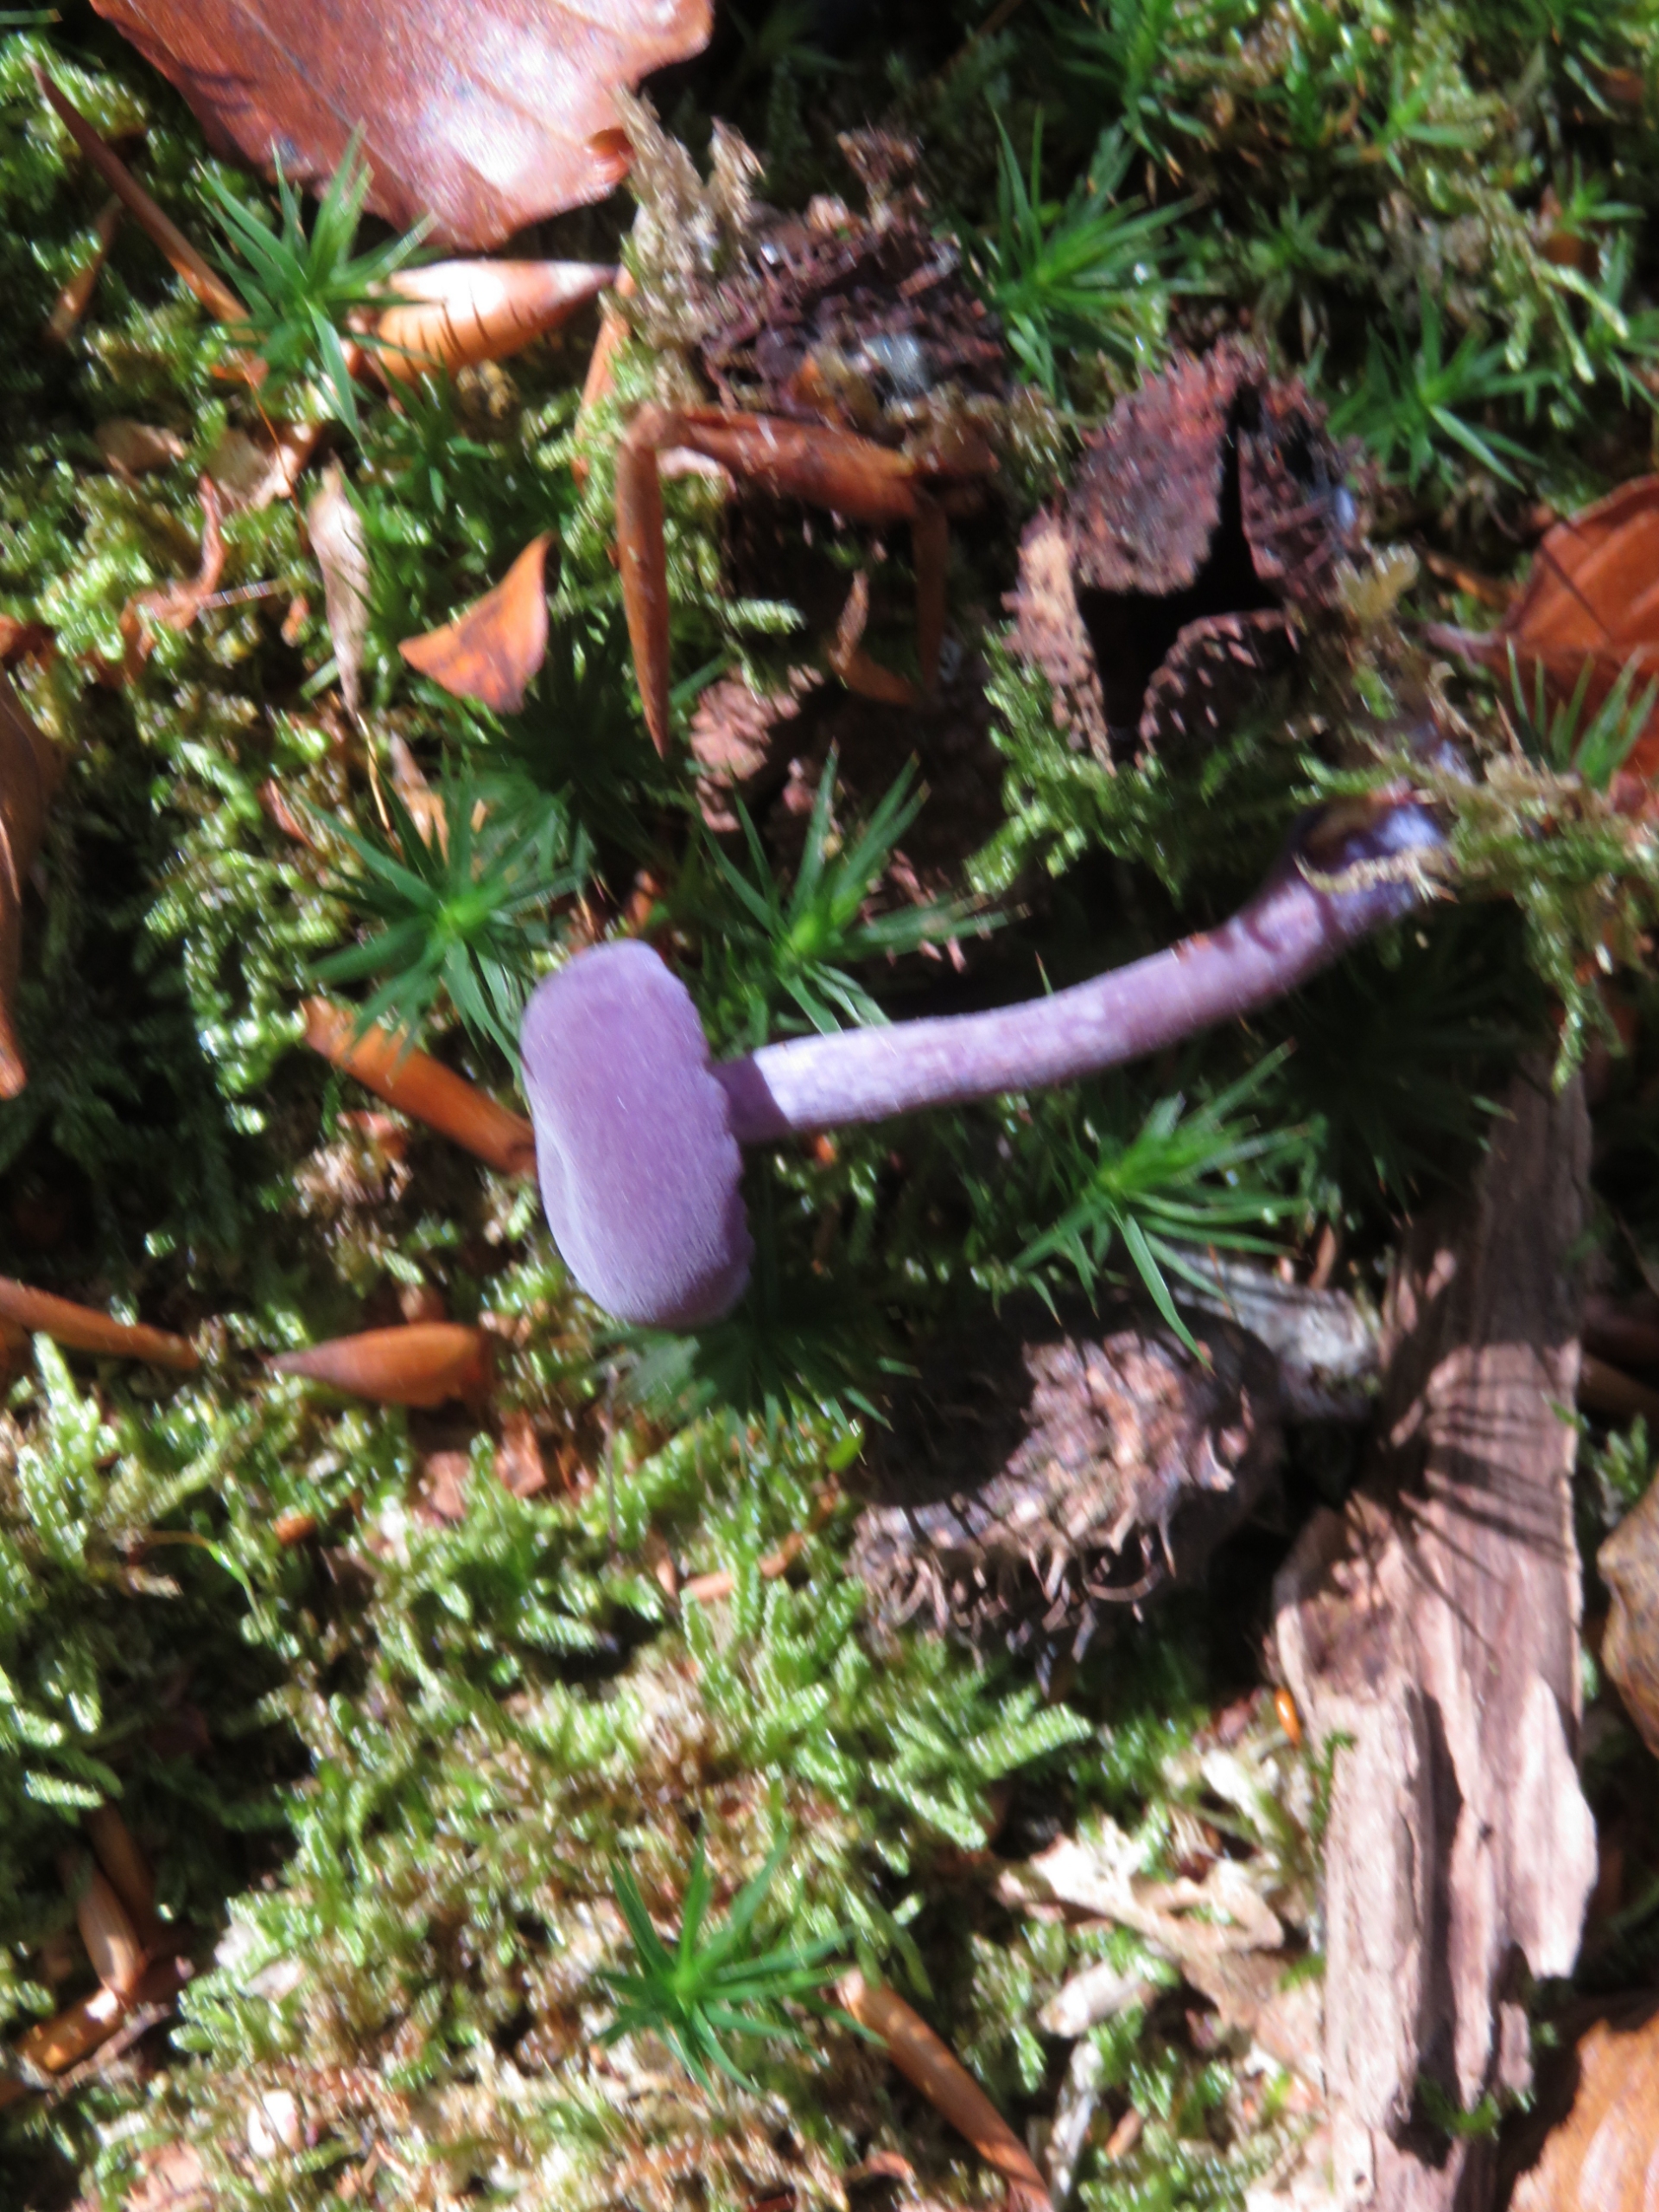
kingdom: Fungi
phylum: Basidiomycota
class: Agaricomycetes
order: Agaricales
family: Hydnangiaceae
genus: Laccaria
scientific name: Laccaria amethystina
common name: Violet ametysthat
